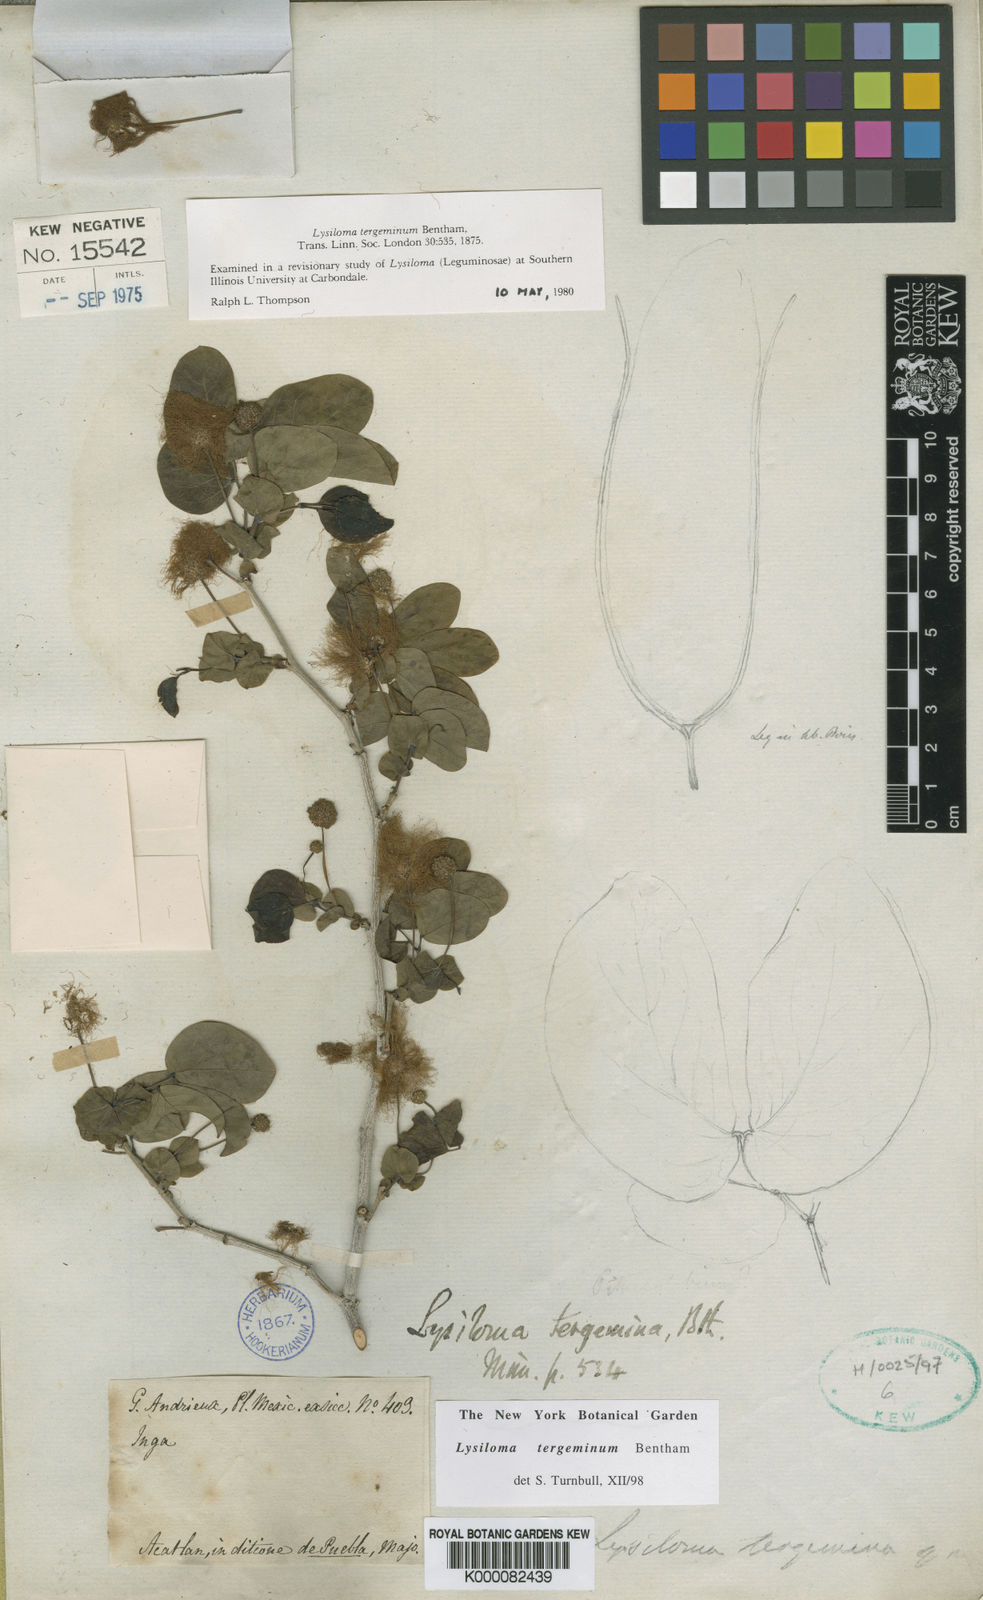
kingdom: Plantae
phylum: Tracheophyta
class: Magnoliopsida
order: Fabales
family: Fabaceae
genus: Lysiloma
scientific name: Lysiloma tergeminum
